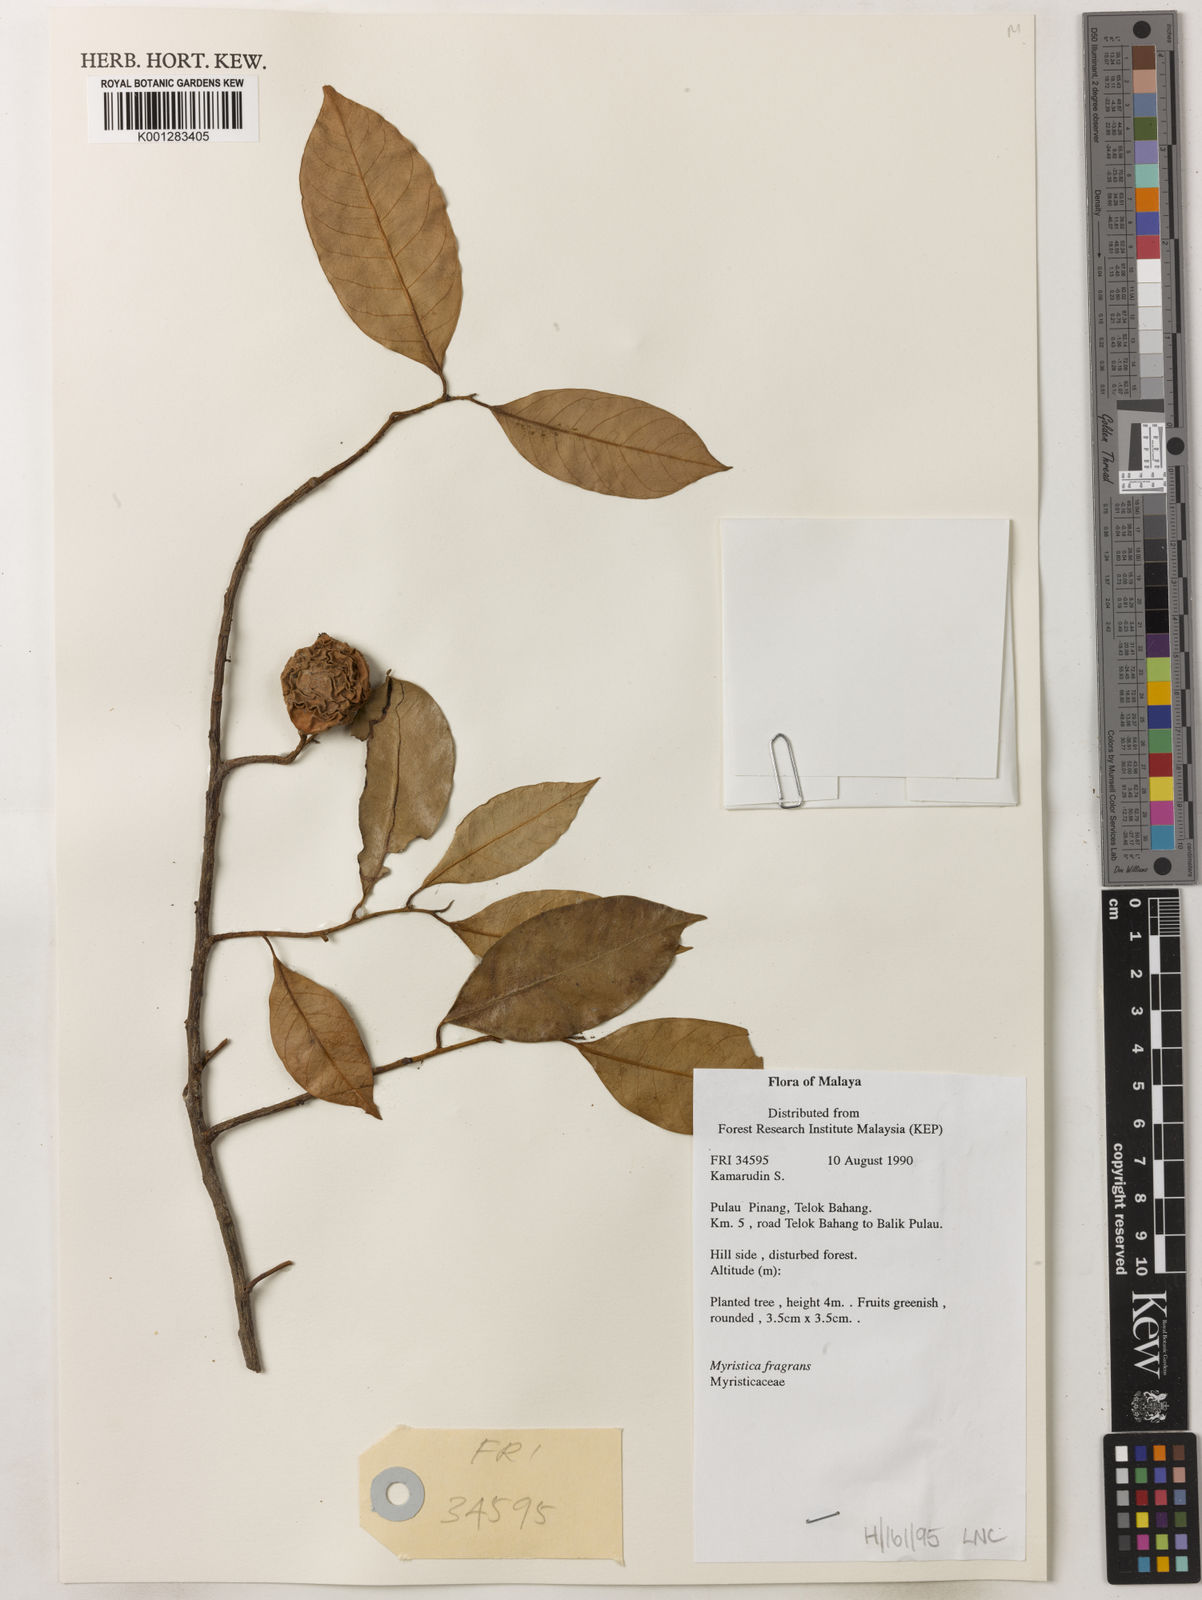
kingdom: Plantae
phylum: Tracheophyta
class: Magnoliopsida
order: Magnoliales
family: Myristicaceae
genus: Myristica
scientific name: Myristica fragrans
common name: Nutmeg
